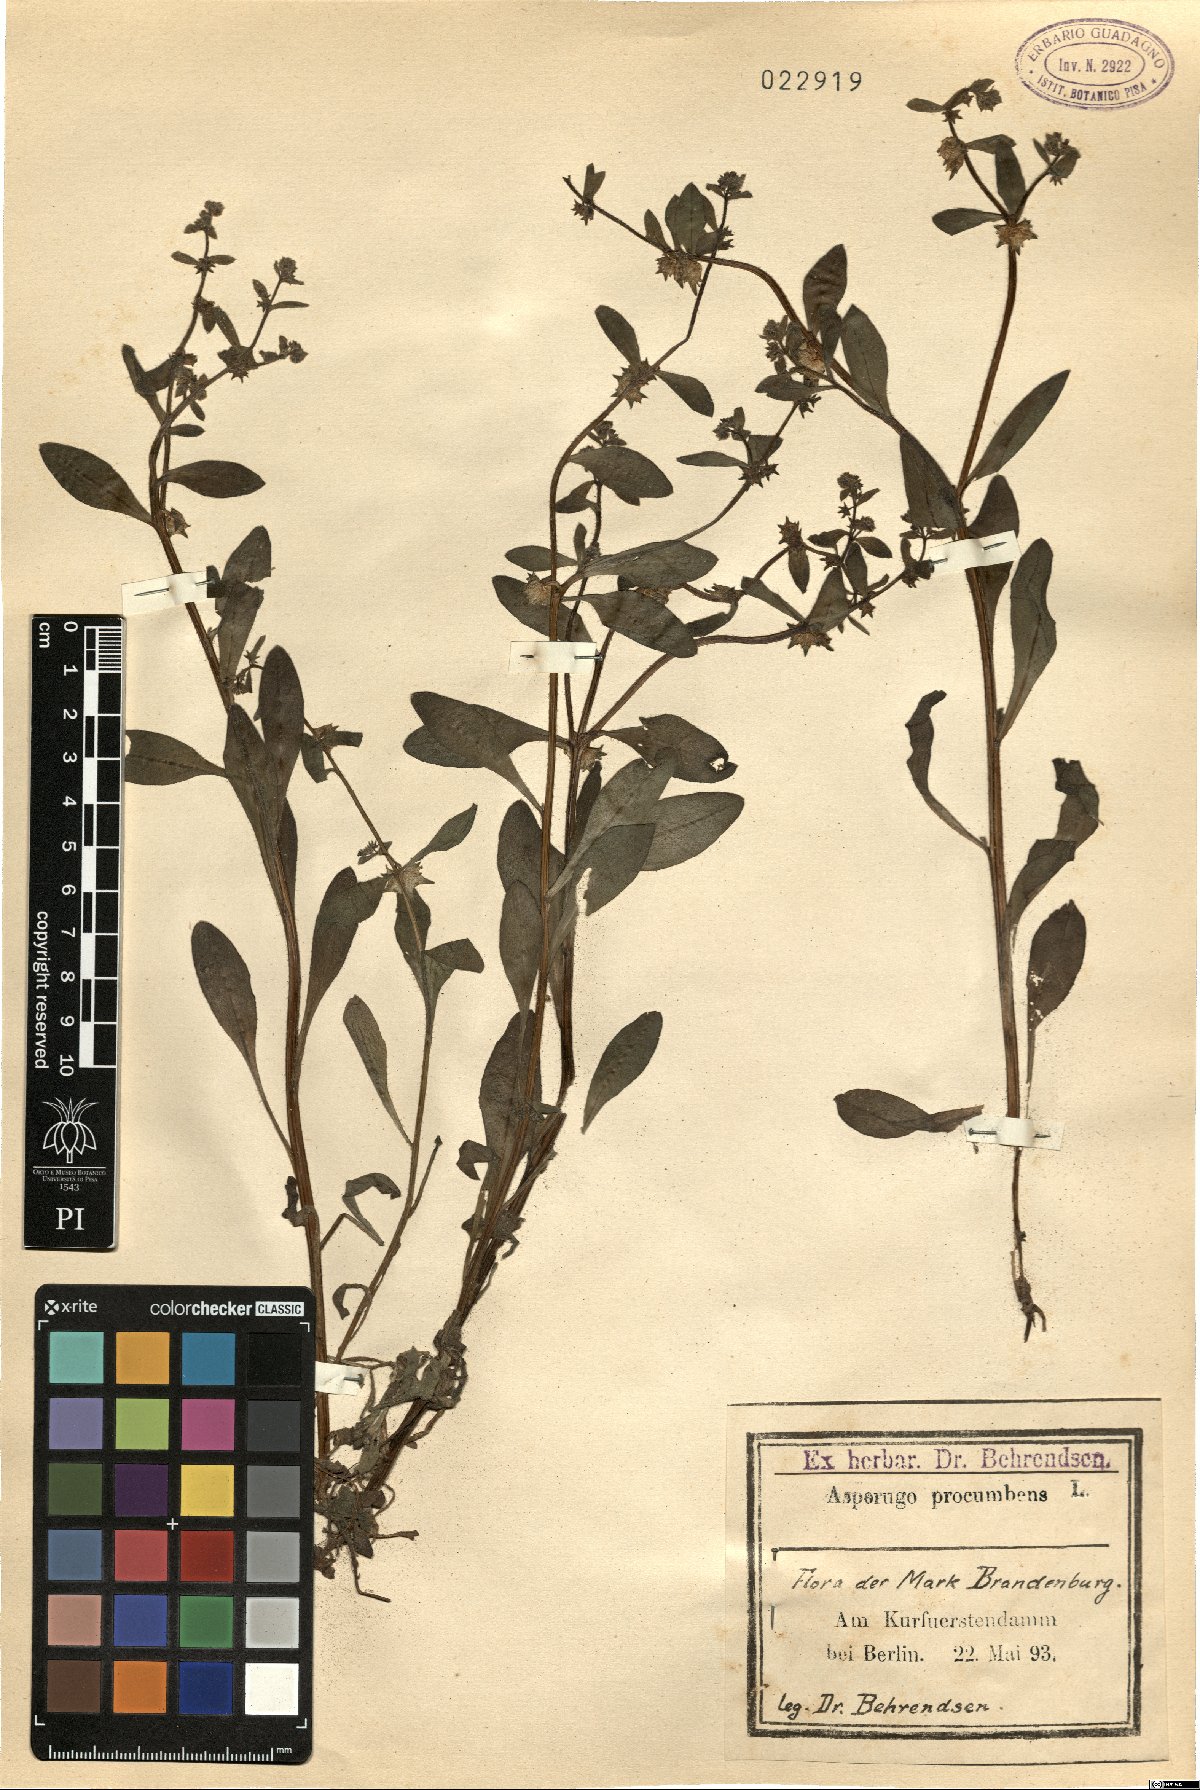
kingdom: Plantae
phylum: Tracheophyta
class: Magnoliopsida
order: Boraginales
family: Boraginaceae
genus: Asperugo
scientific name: Asperugo procumbens
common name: Madwort
